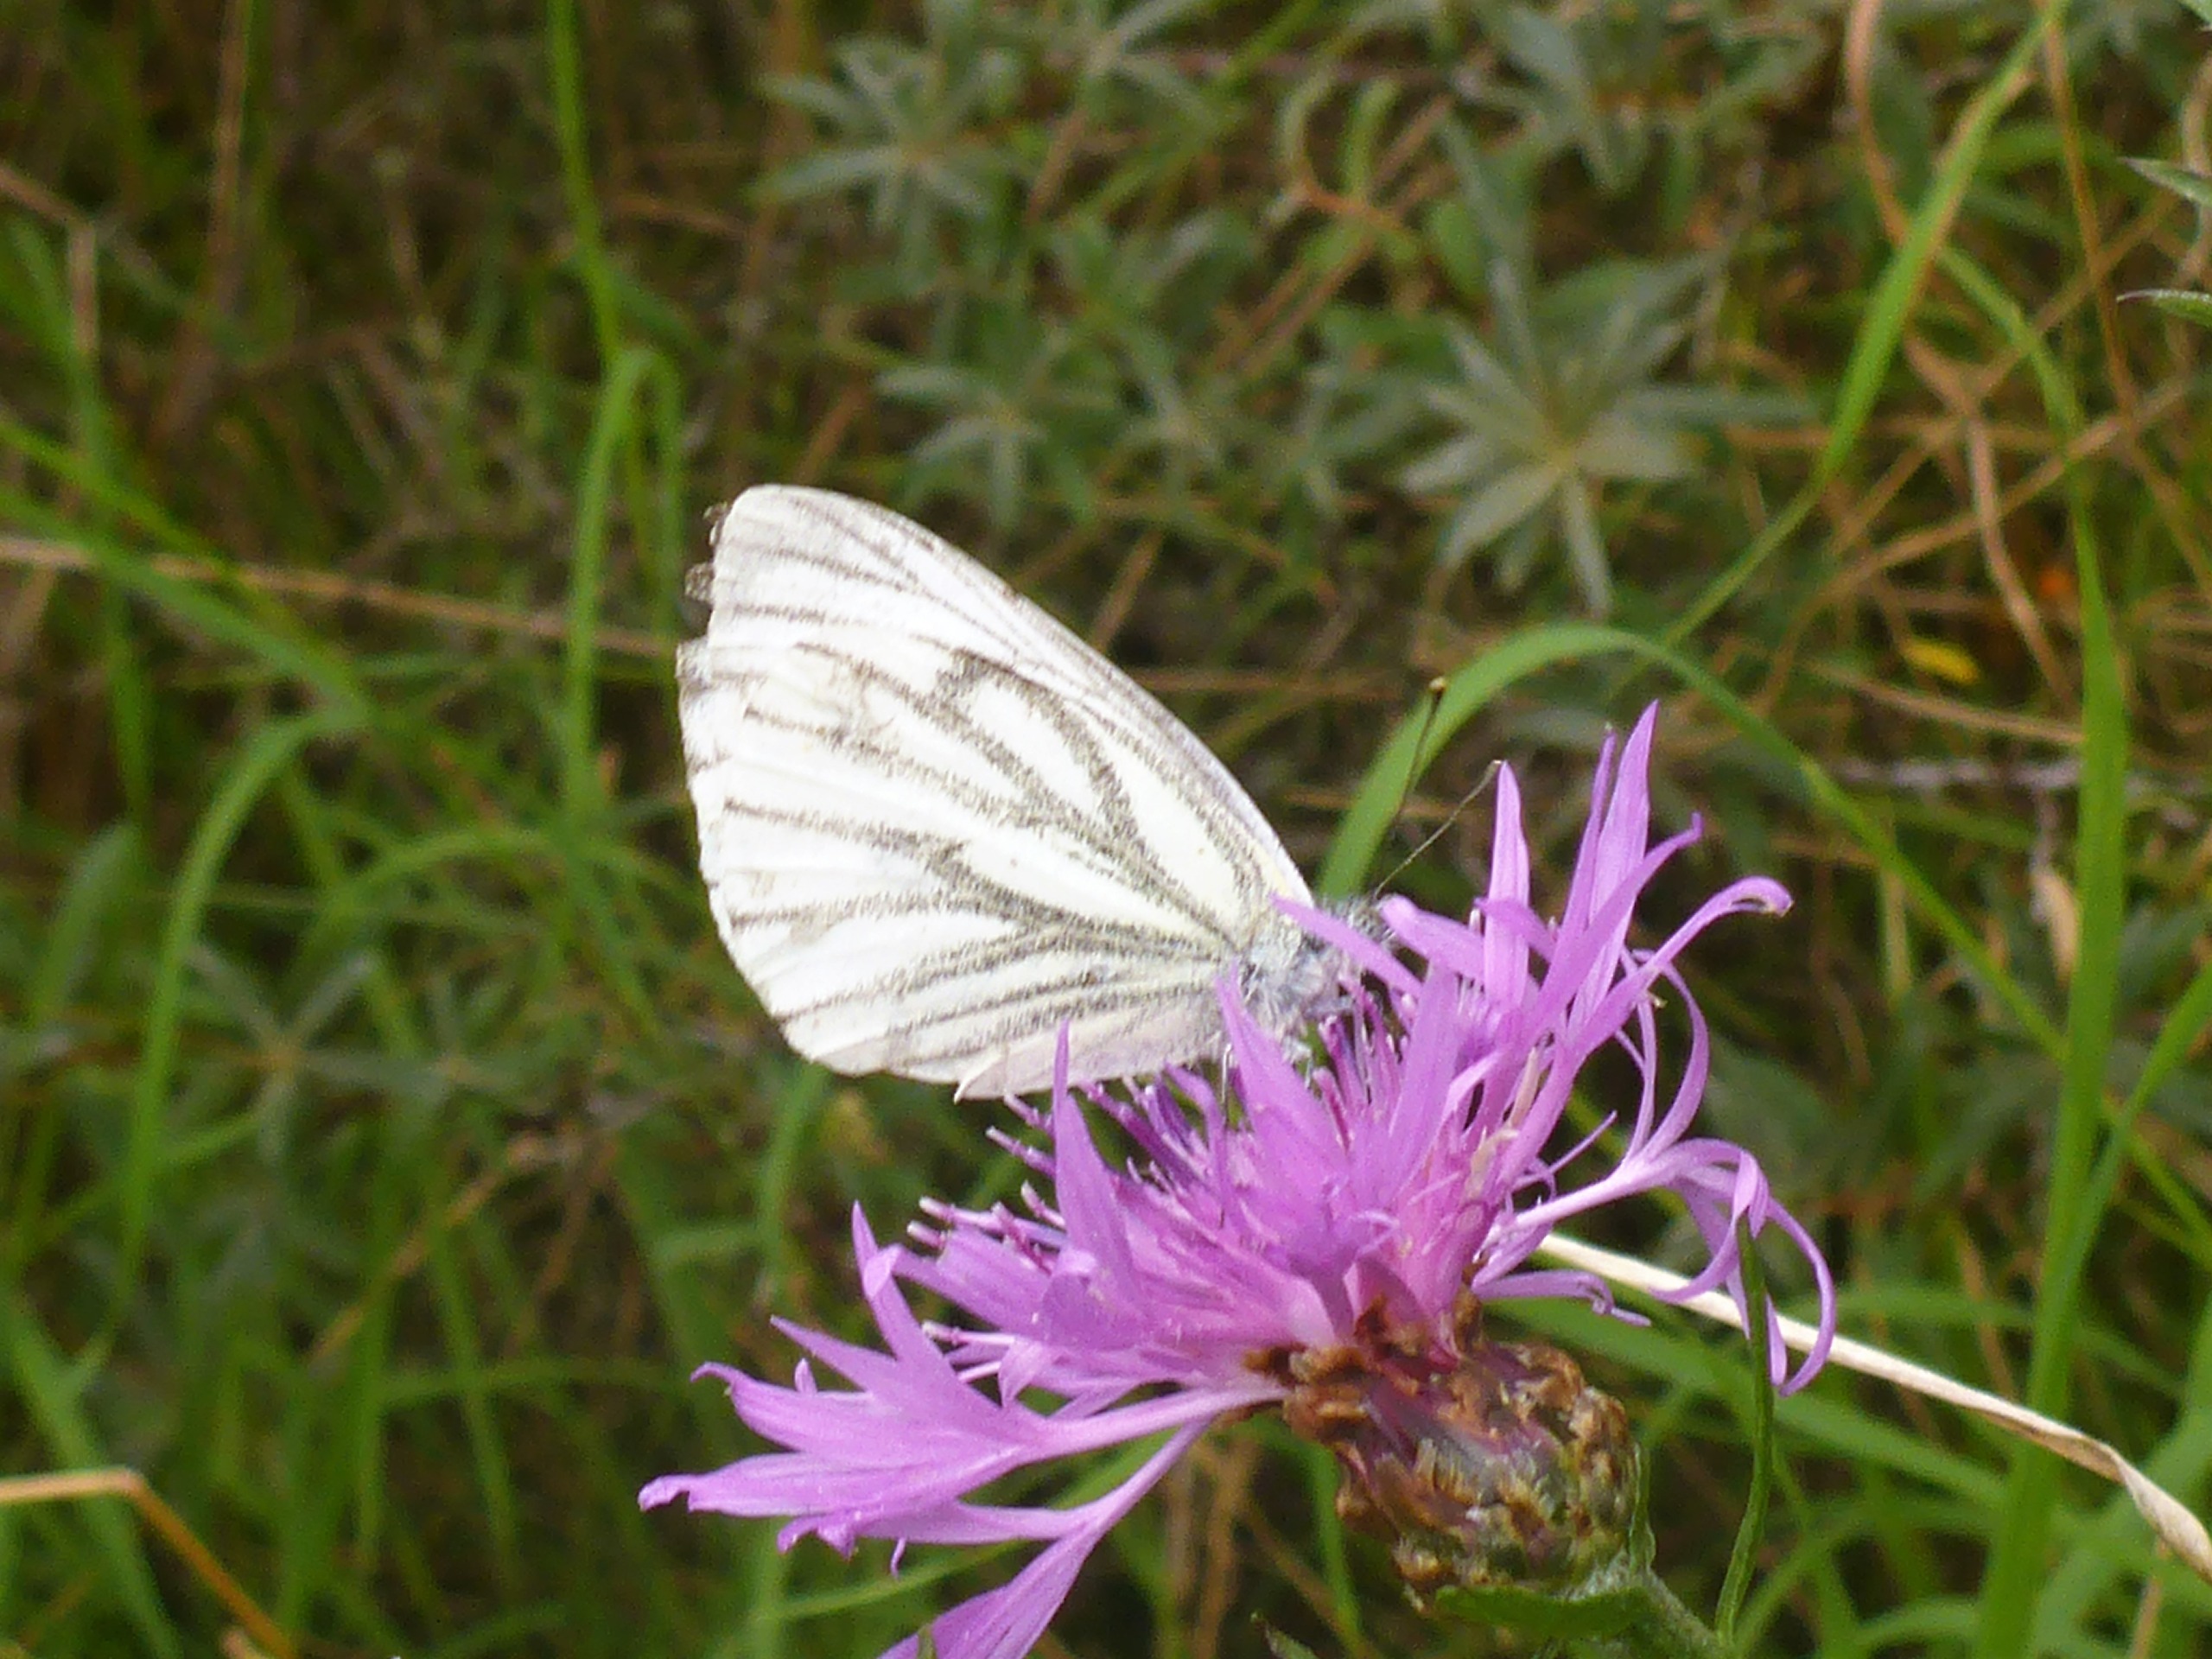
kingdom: Animalia
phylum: Arthropoda
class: Insecta
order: Lepidoptera
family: Pieridae
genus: Pieris
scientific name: Pieris napi
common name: Grønåret kålsommerfugl
